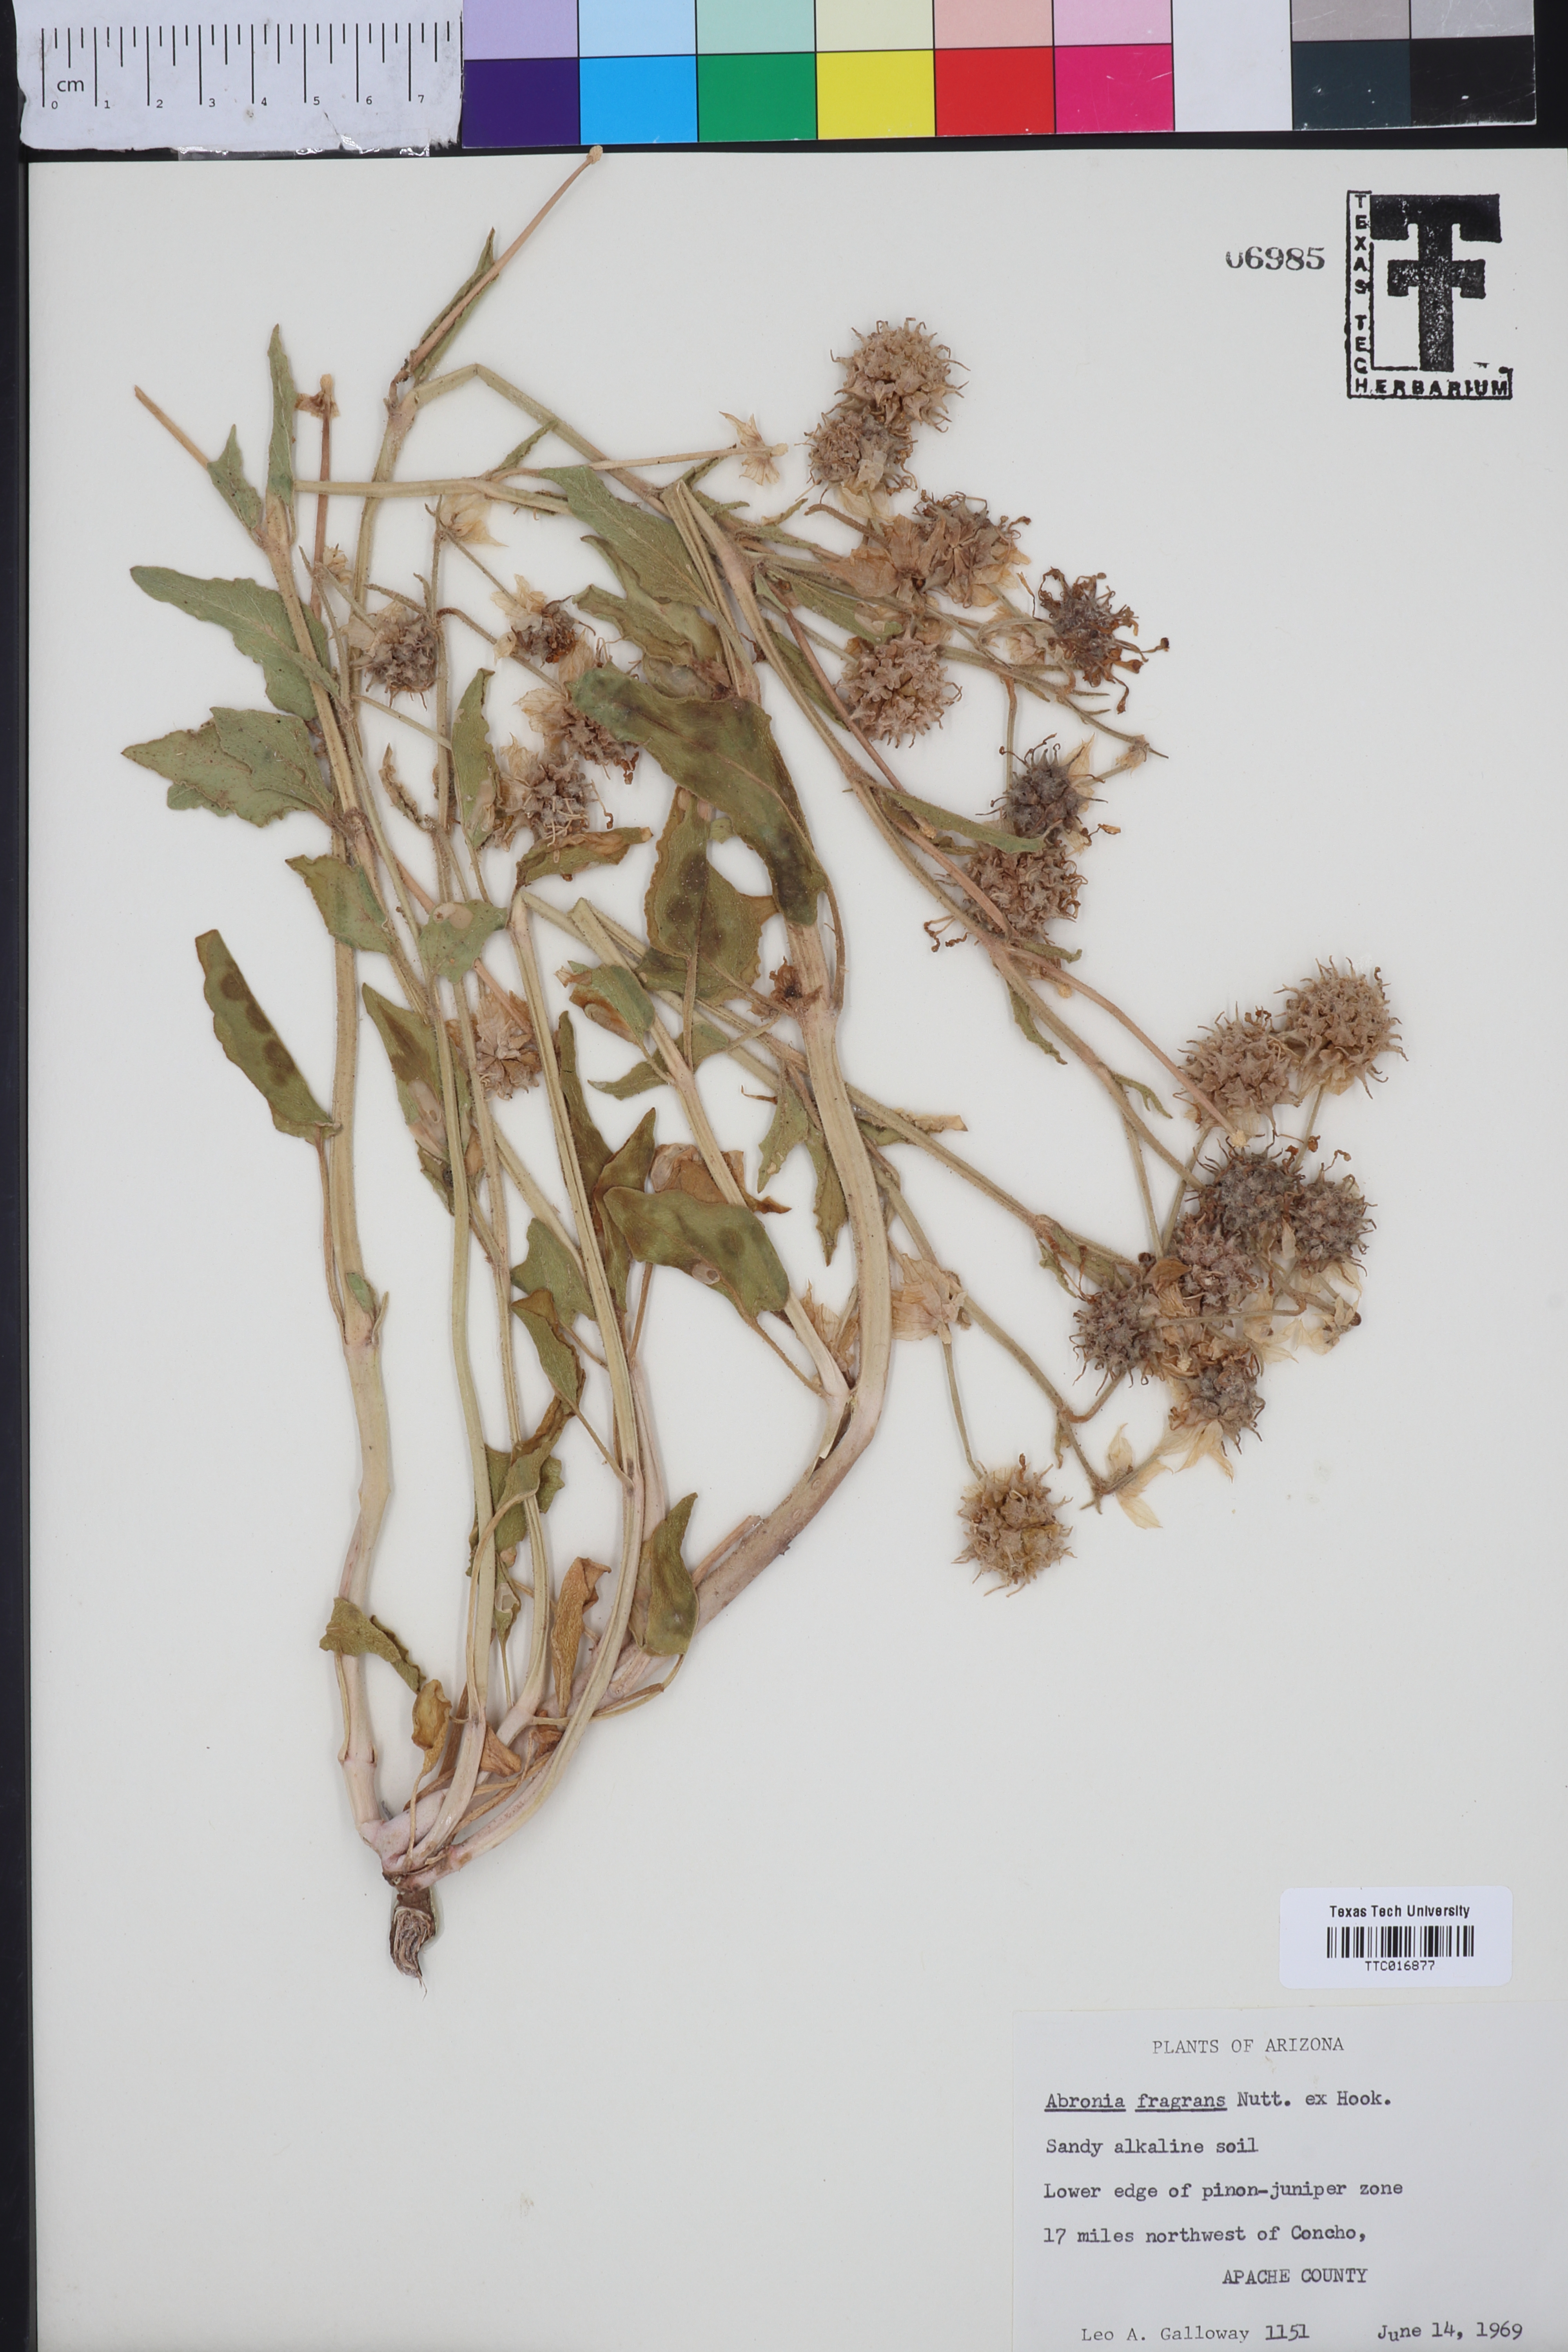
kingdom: Plantae
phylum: Tracheophyta
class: Magnoliopsida
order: Caryophyllales
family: Nyctaginaceae
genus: Abronia
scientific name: Abronia fragrans
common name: Fragrant sand-verbena
